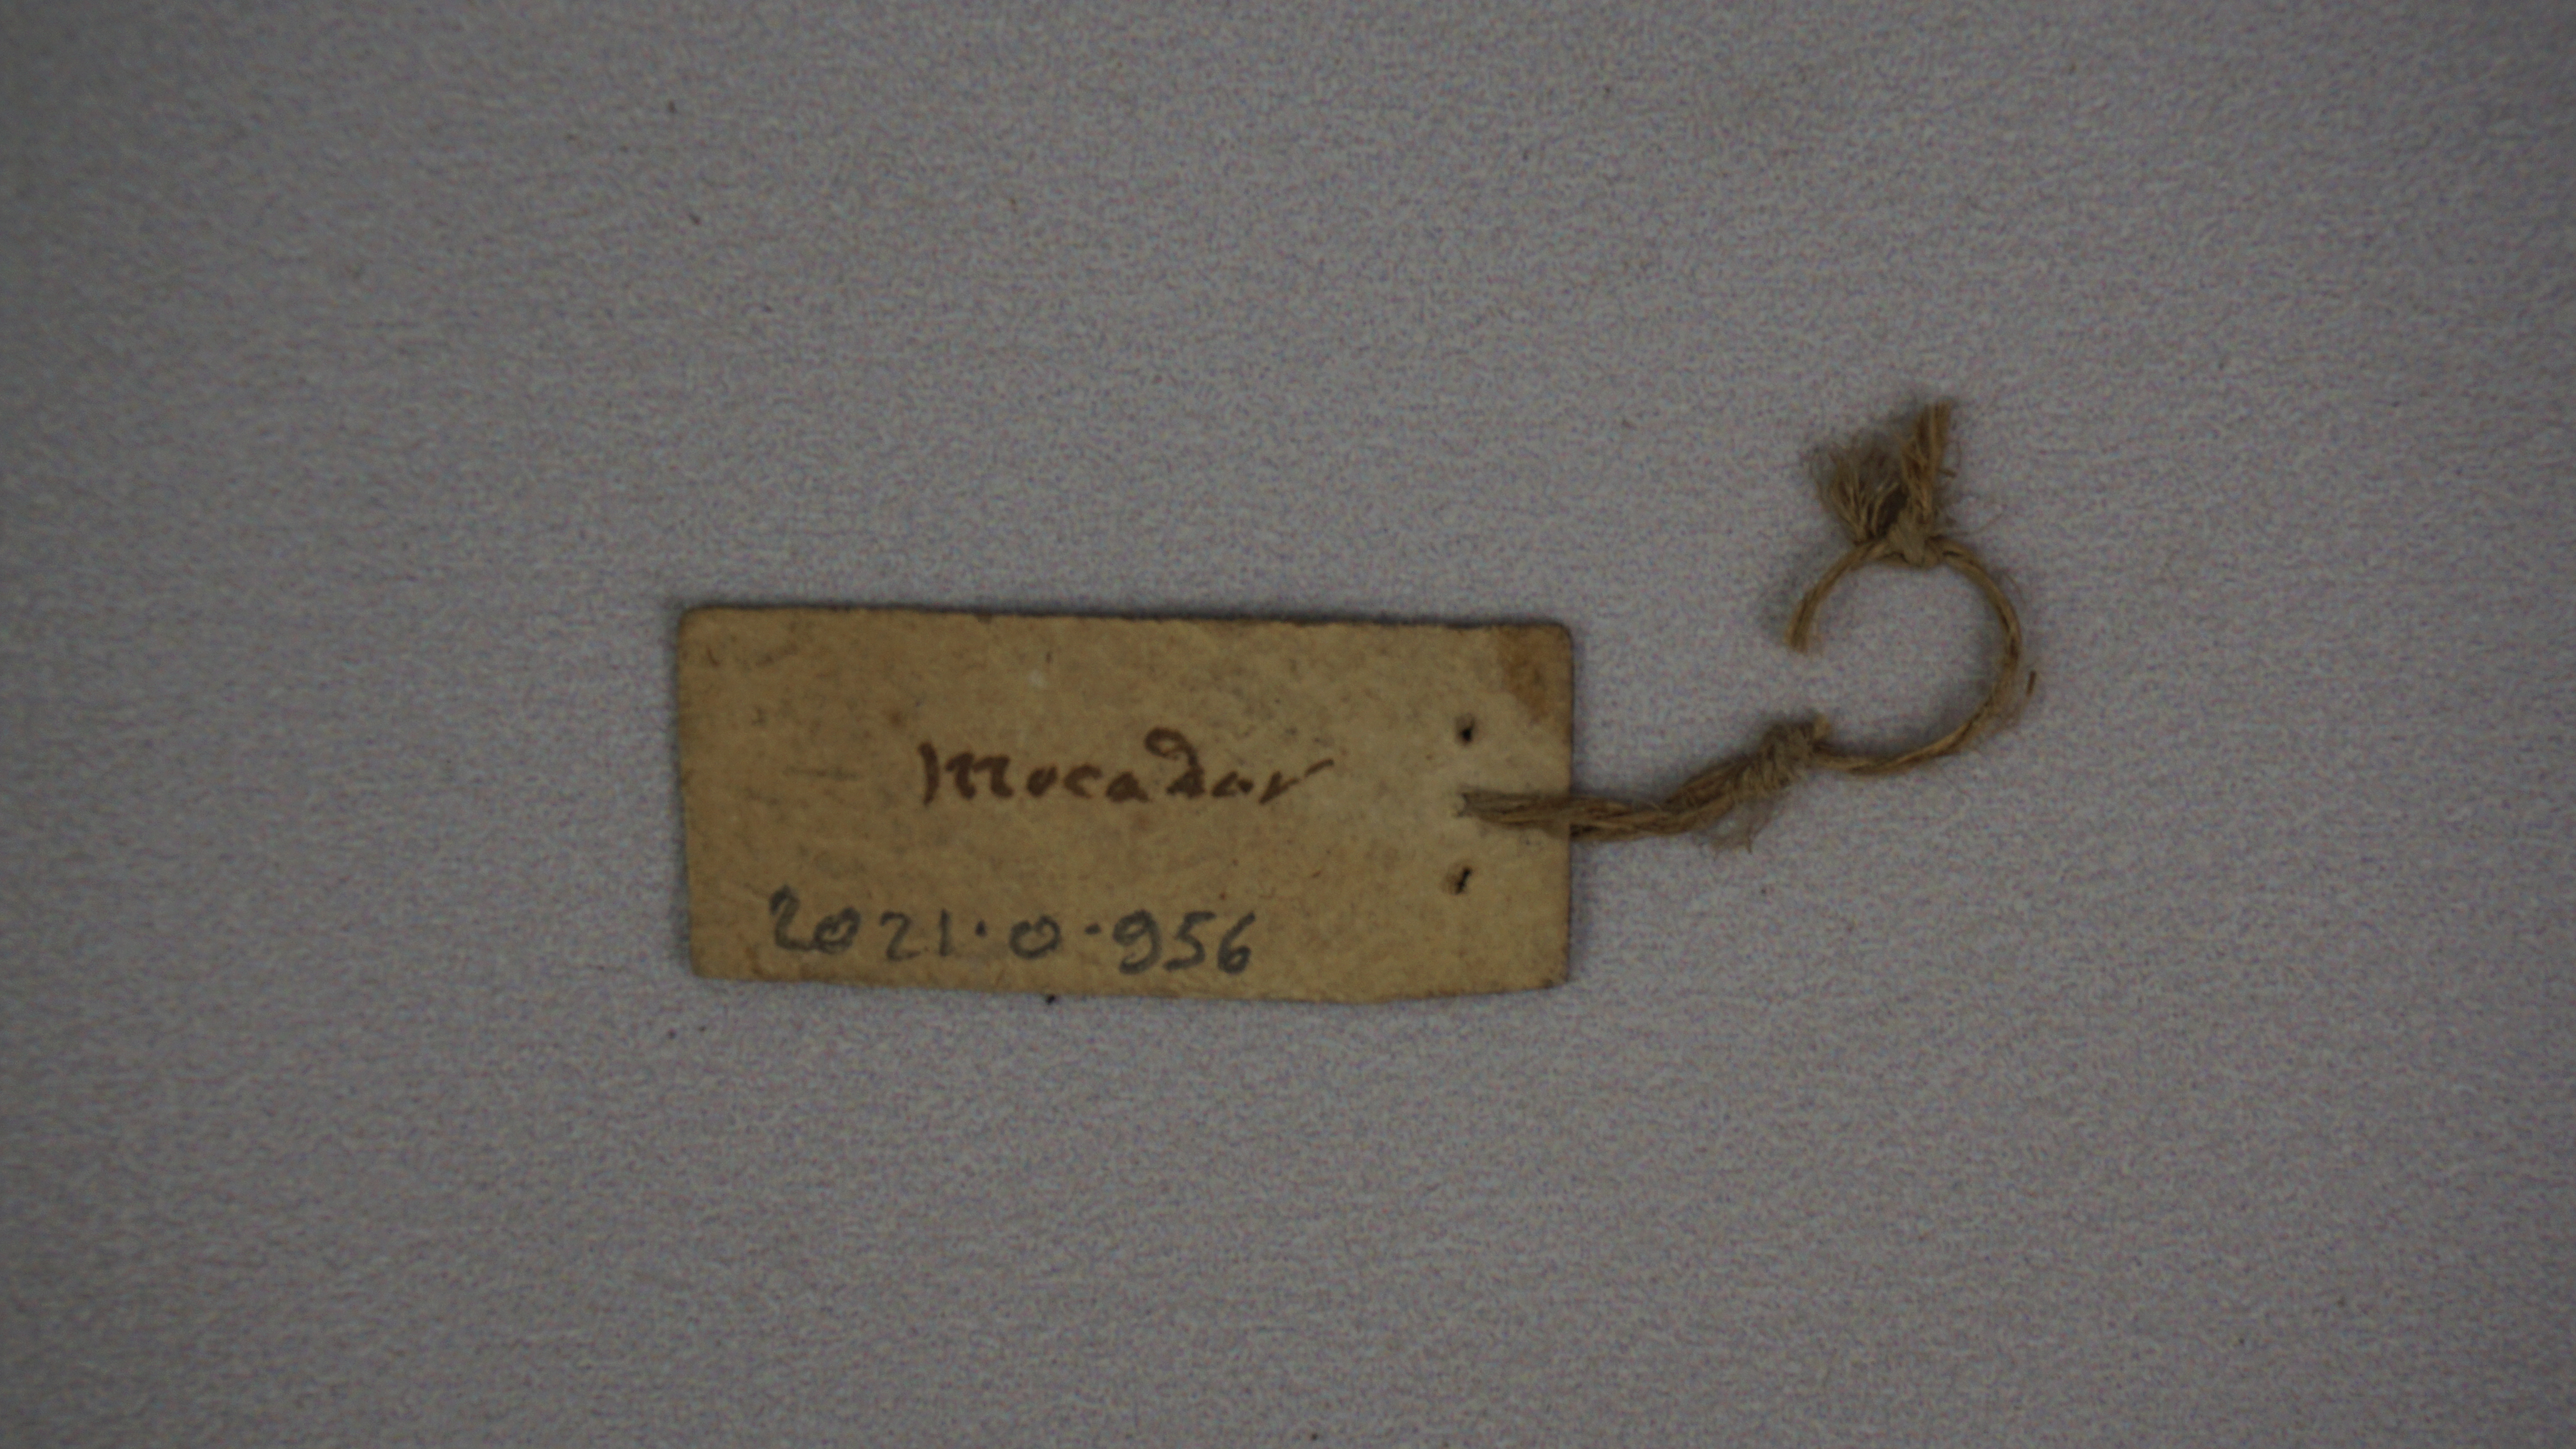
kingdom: Animalia
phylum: Chordata
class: Aves
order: Strigiformes
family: Tytonidae
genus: Tyto
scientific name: Tyto alba
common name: Barn owl
